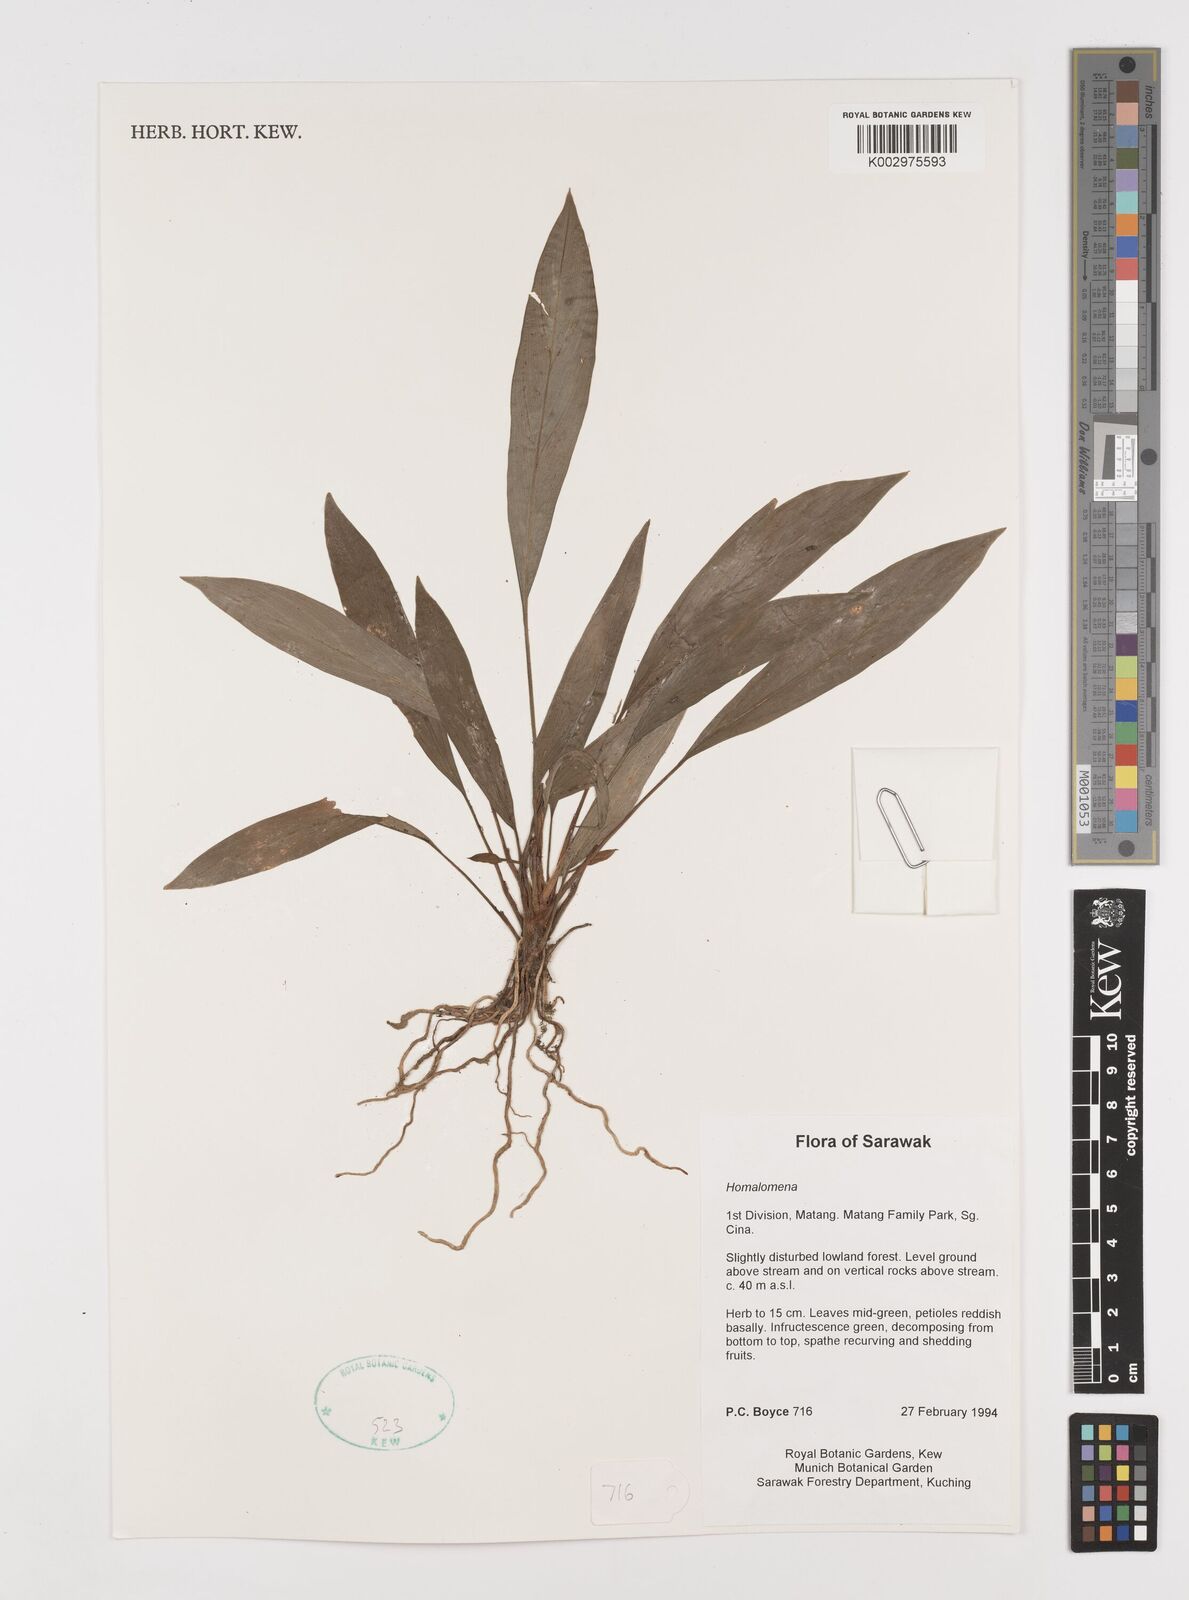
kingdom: Plantae
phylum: Tracheophyta
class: Liliopsida
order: Alismatales
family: Araceae
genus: Homalomena
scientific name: Homalomena
